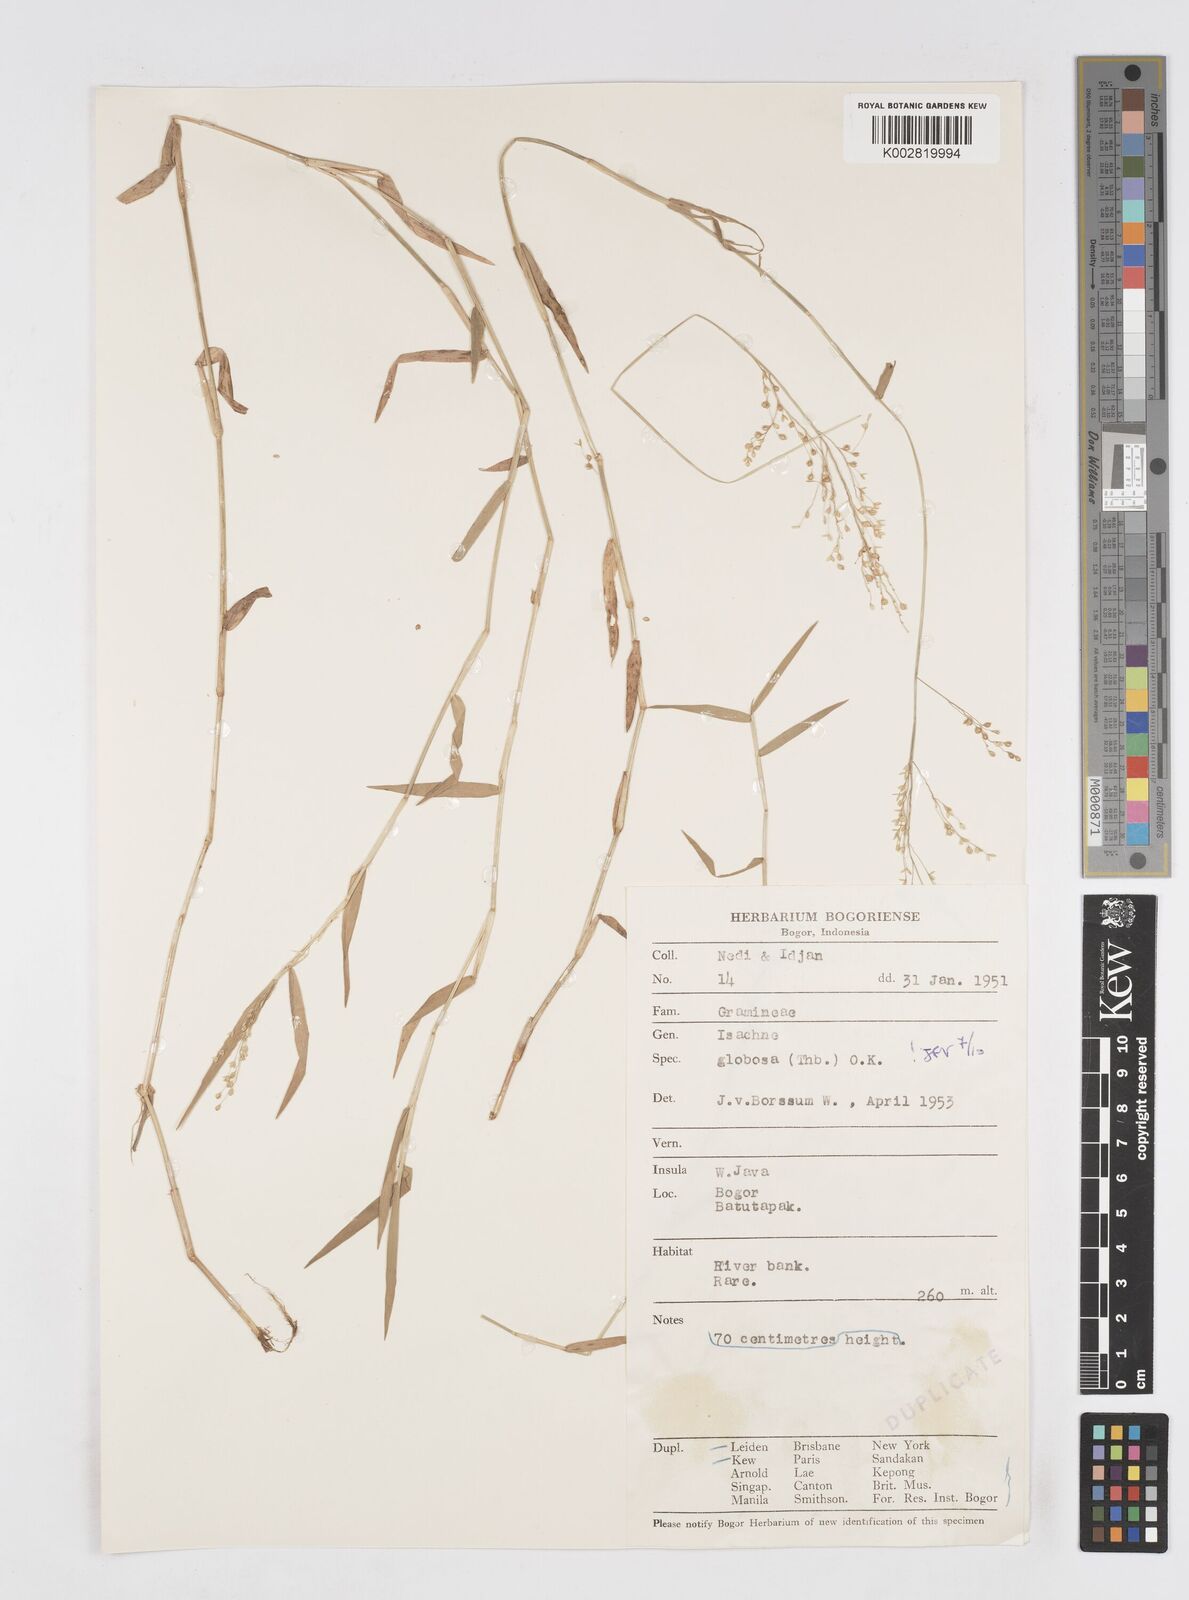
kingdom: Plantae
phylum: Tracheophyta
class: Liliopsida
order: Poales
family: Poaceae
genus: Isachne
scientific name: Isachne globosa
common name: Swamp millet
